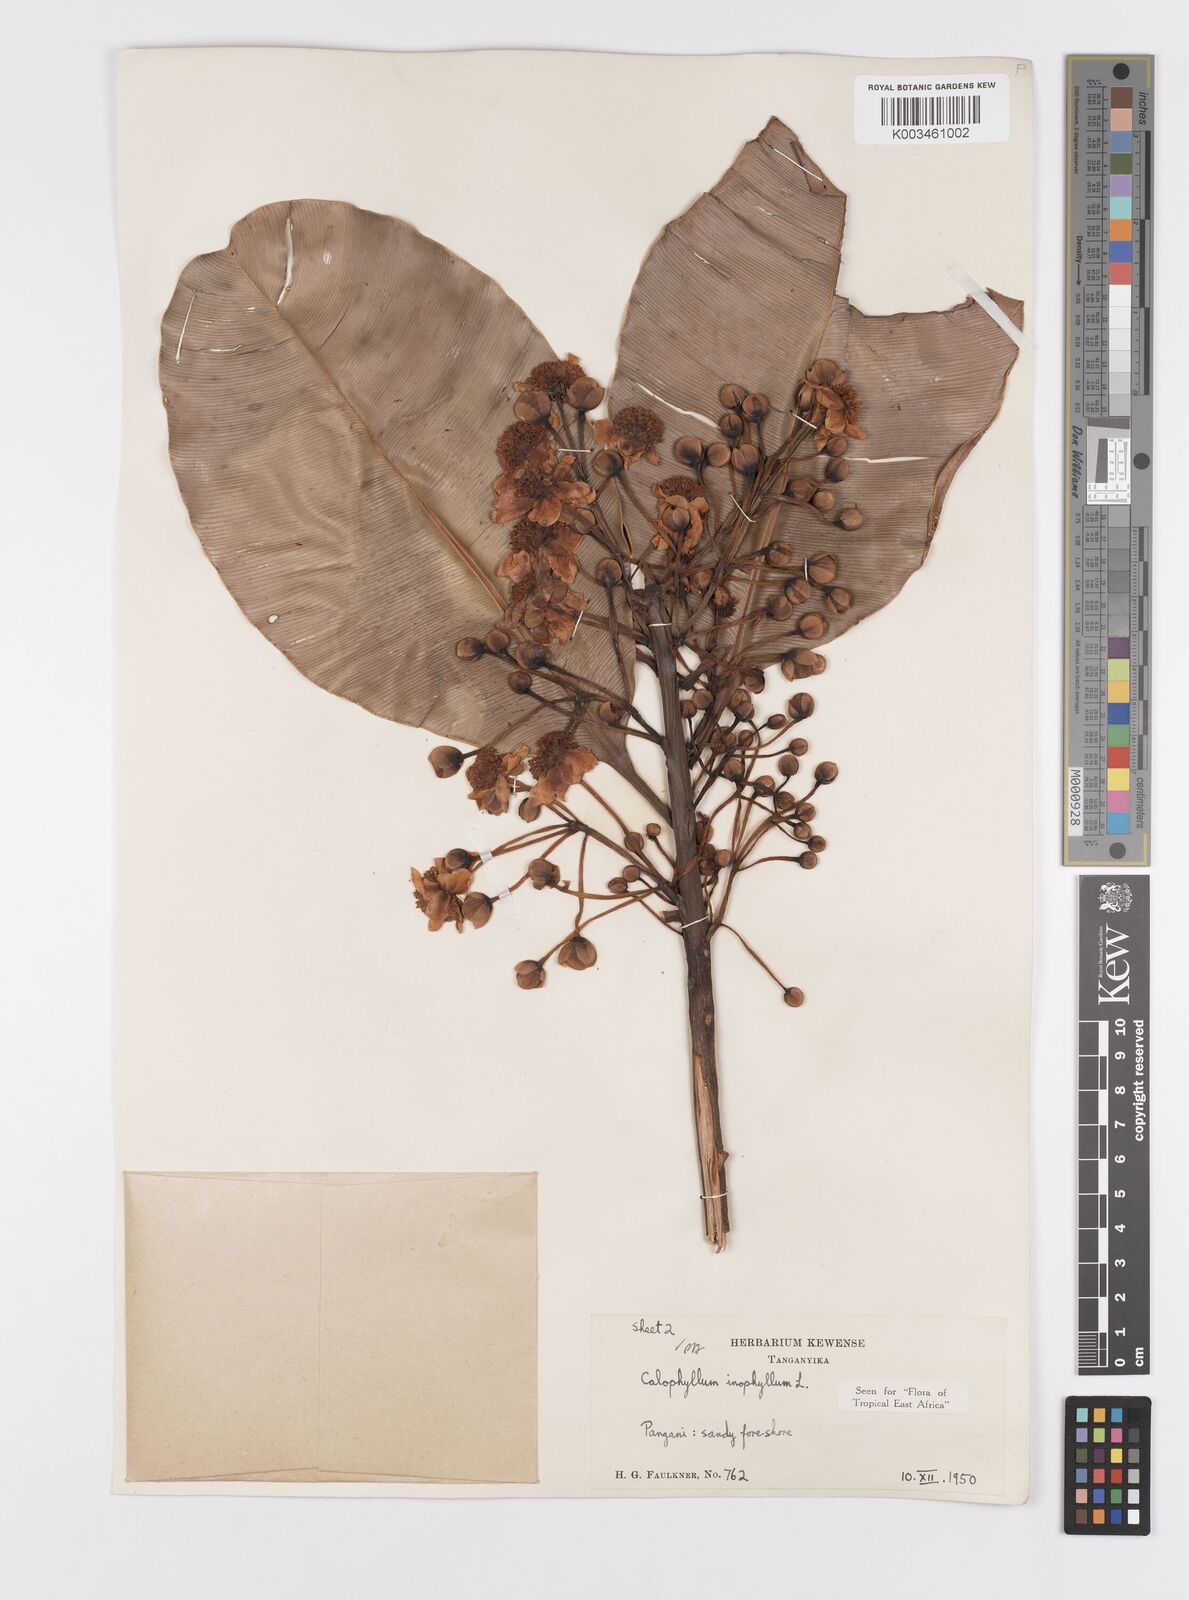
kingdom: Plantae
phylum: Tracheophyta
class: Magnoliopsida
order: Malpighiales
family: Calophyllaceae
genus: Calophyllum
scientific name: Calophyllum inophyllum
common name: Alexandrian laurel
